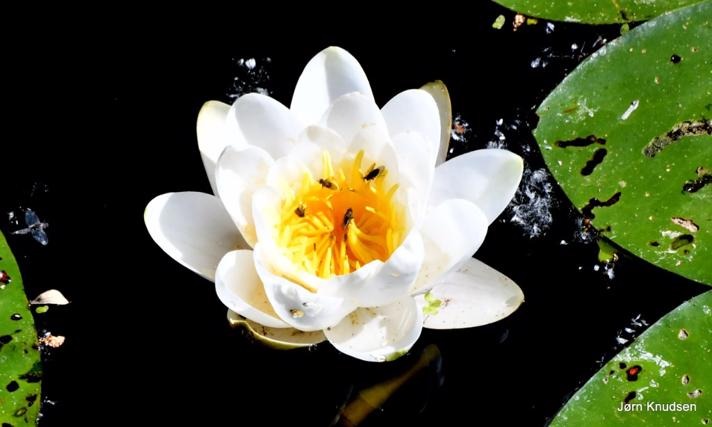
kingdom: Plantae
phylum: Tracheophyta
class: Magnoliopsida
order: Nymphaeales
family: Nymphaeaceae
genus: Nymphaea
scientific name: Nymphaea alba
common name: Hvid åkande
